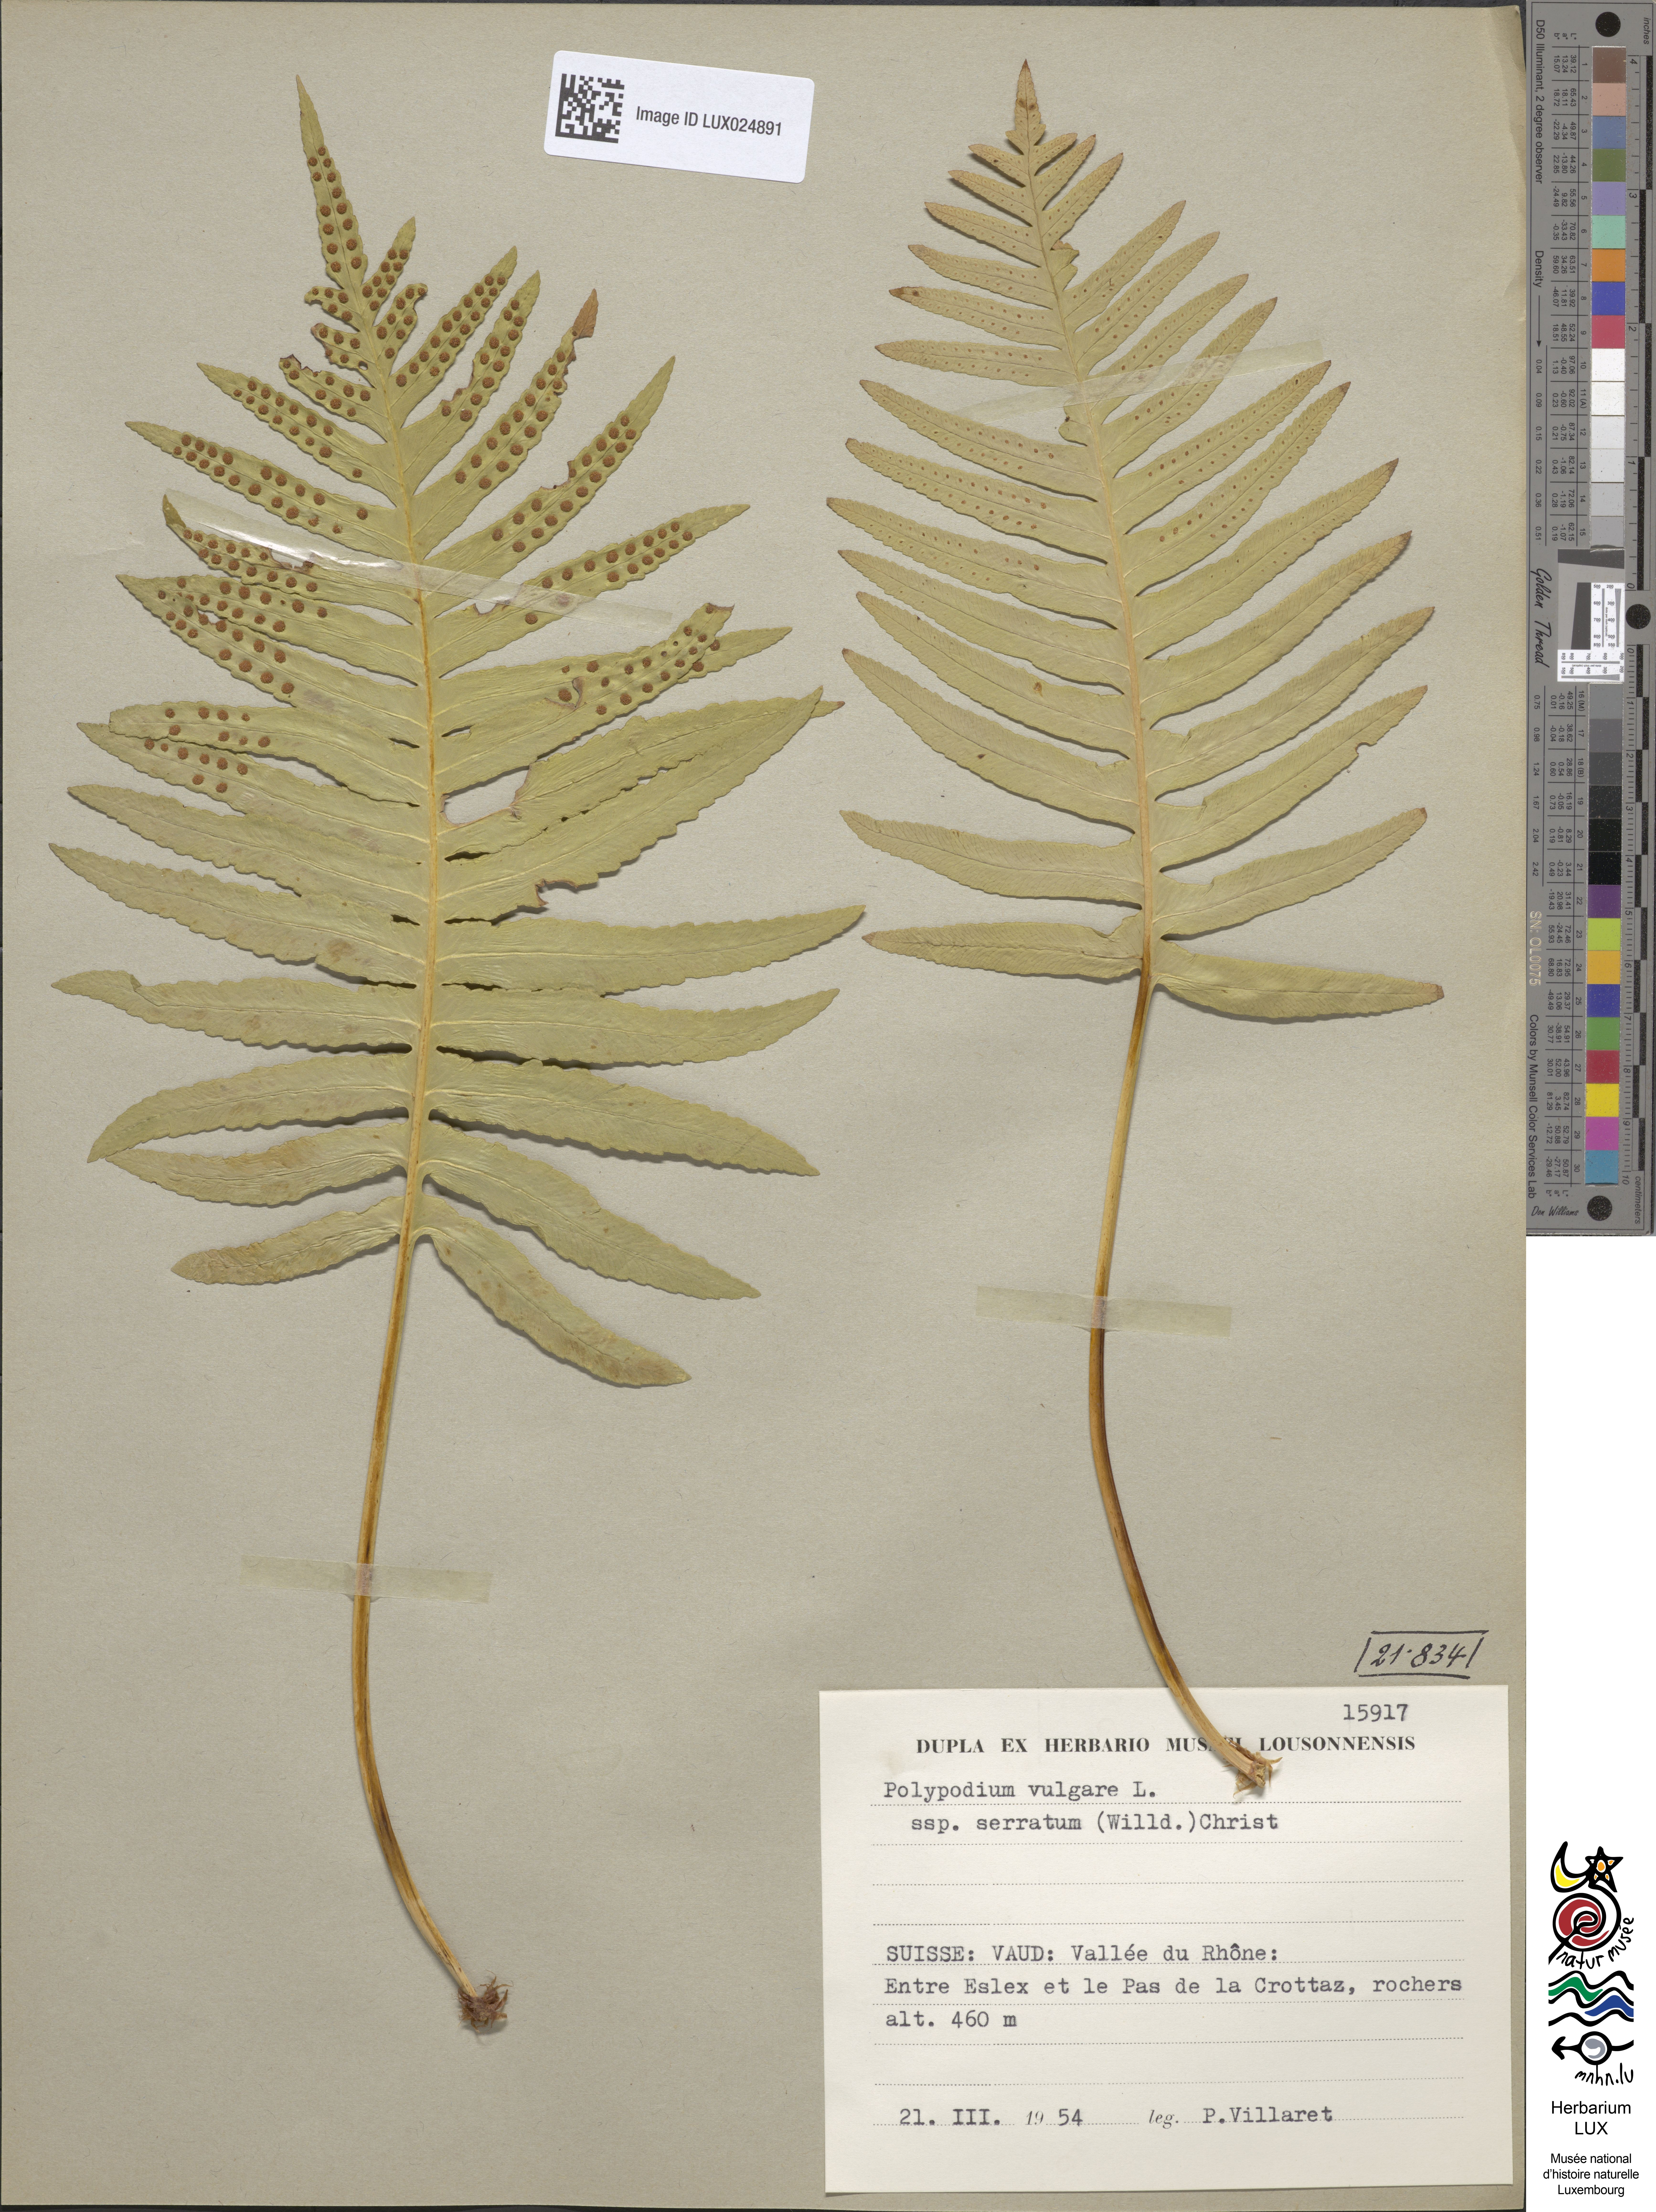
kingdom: Plantae
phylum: Tracheophyta
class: Polypodiopsida
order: Polypodiales
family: Polypodiaceae
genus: Polypodium
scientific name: Polypodium cambricum
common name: Southern polypody
